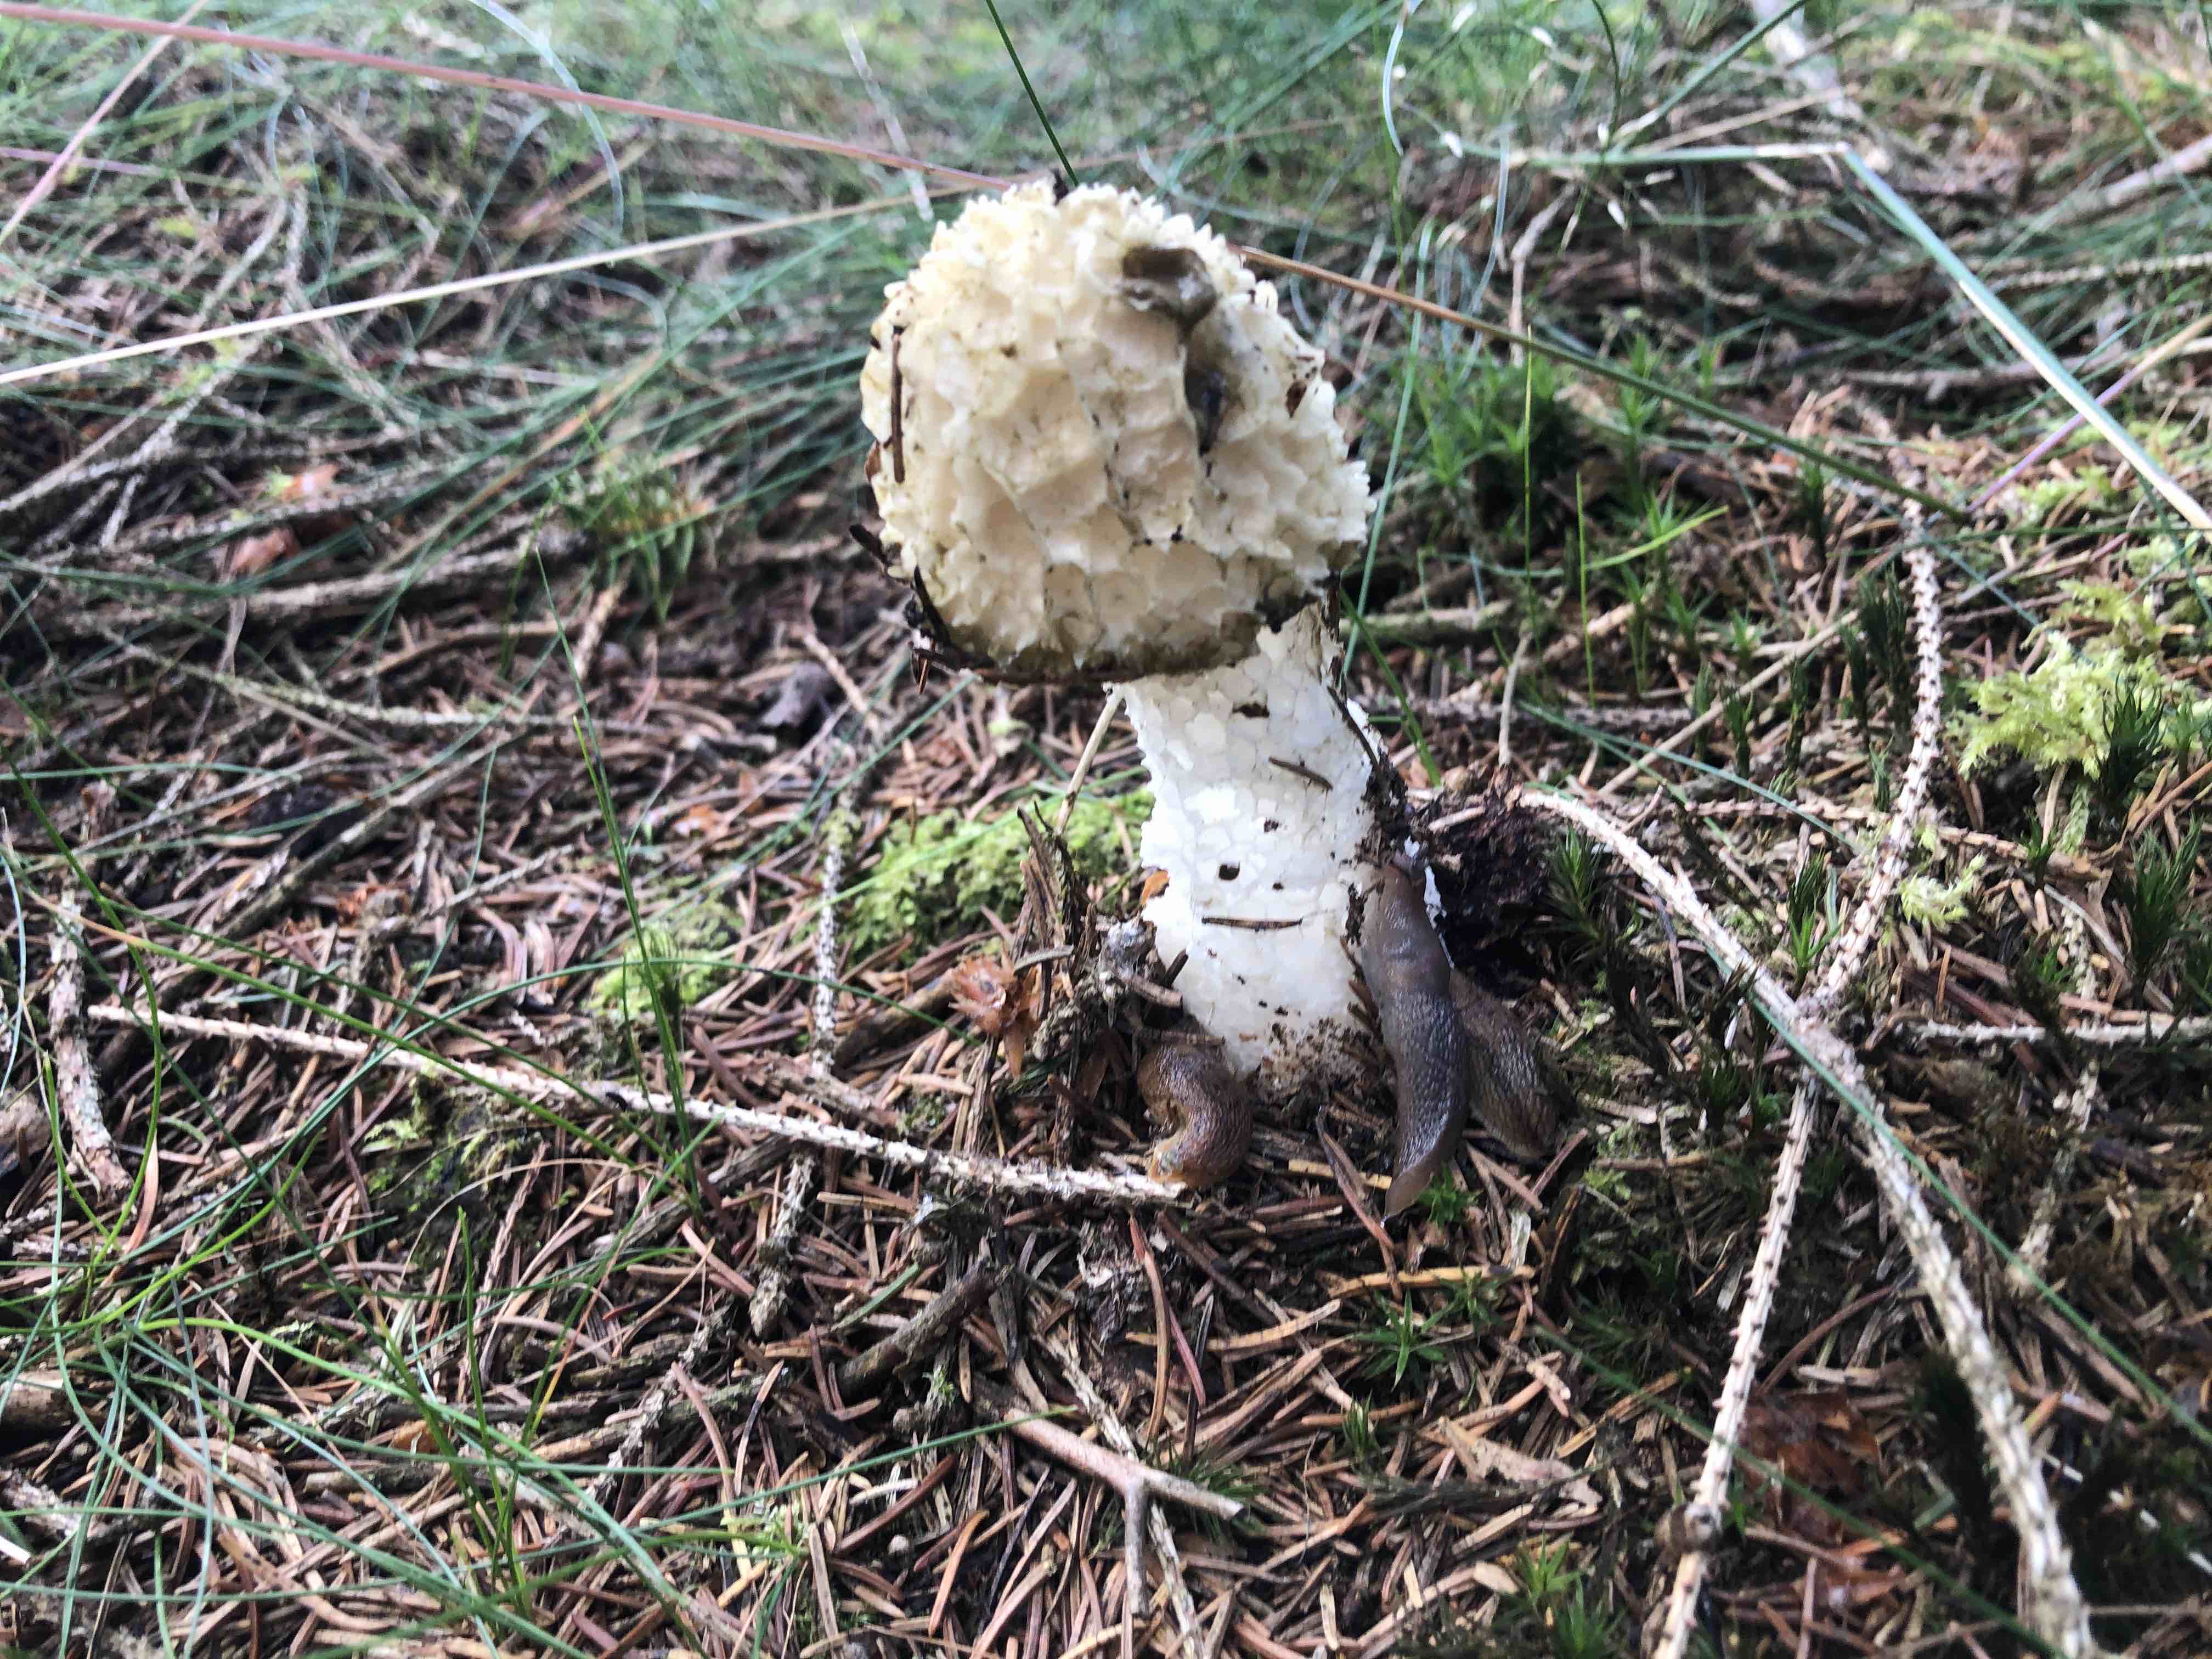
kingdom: Fungi
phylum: Basidiomycota
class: Agaricomycetes
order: Phallales
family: Phallaceae
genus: Phallus
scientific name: Phallus impudicus
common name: almindelig stinksvamp
